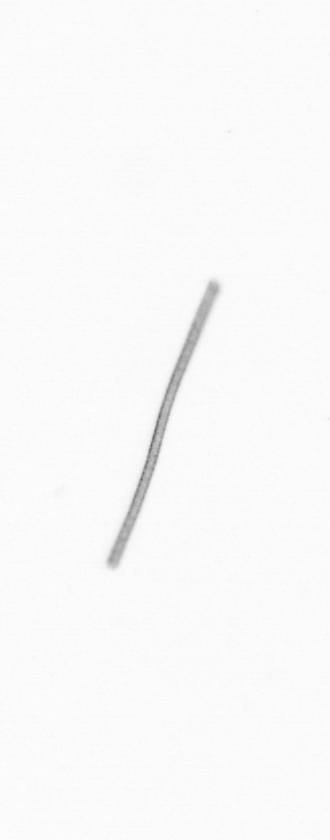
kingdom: Chromista
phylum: Ochrophyta
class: Bacillariophyceae
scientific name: Bacillariophyceae
